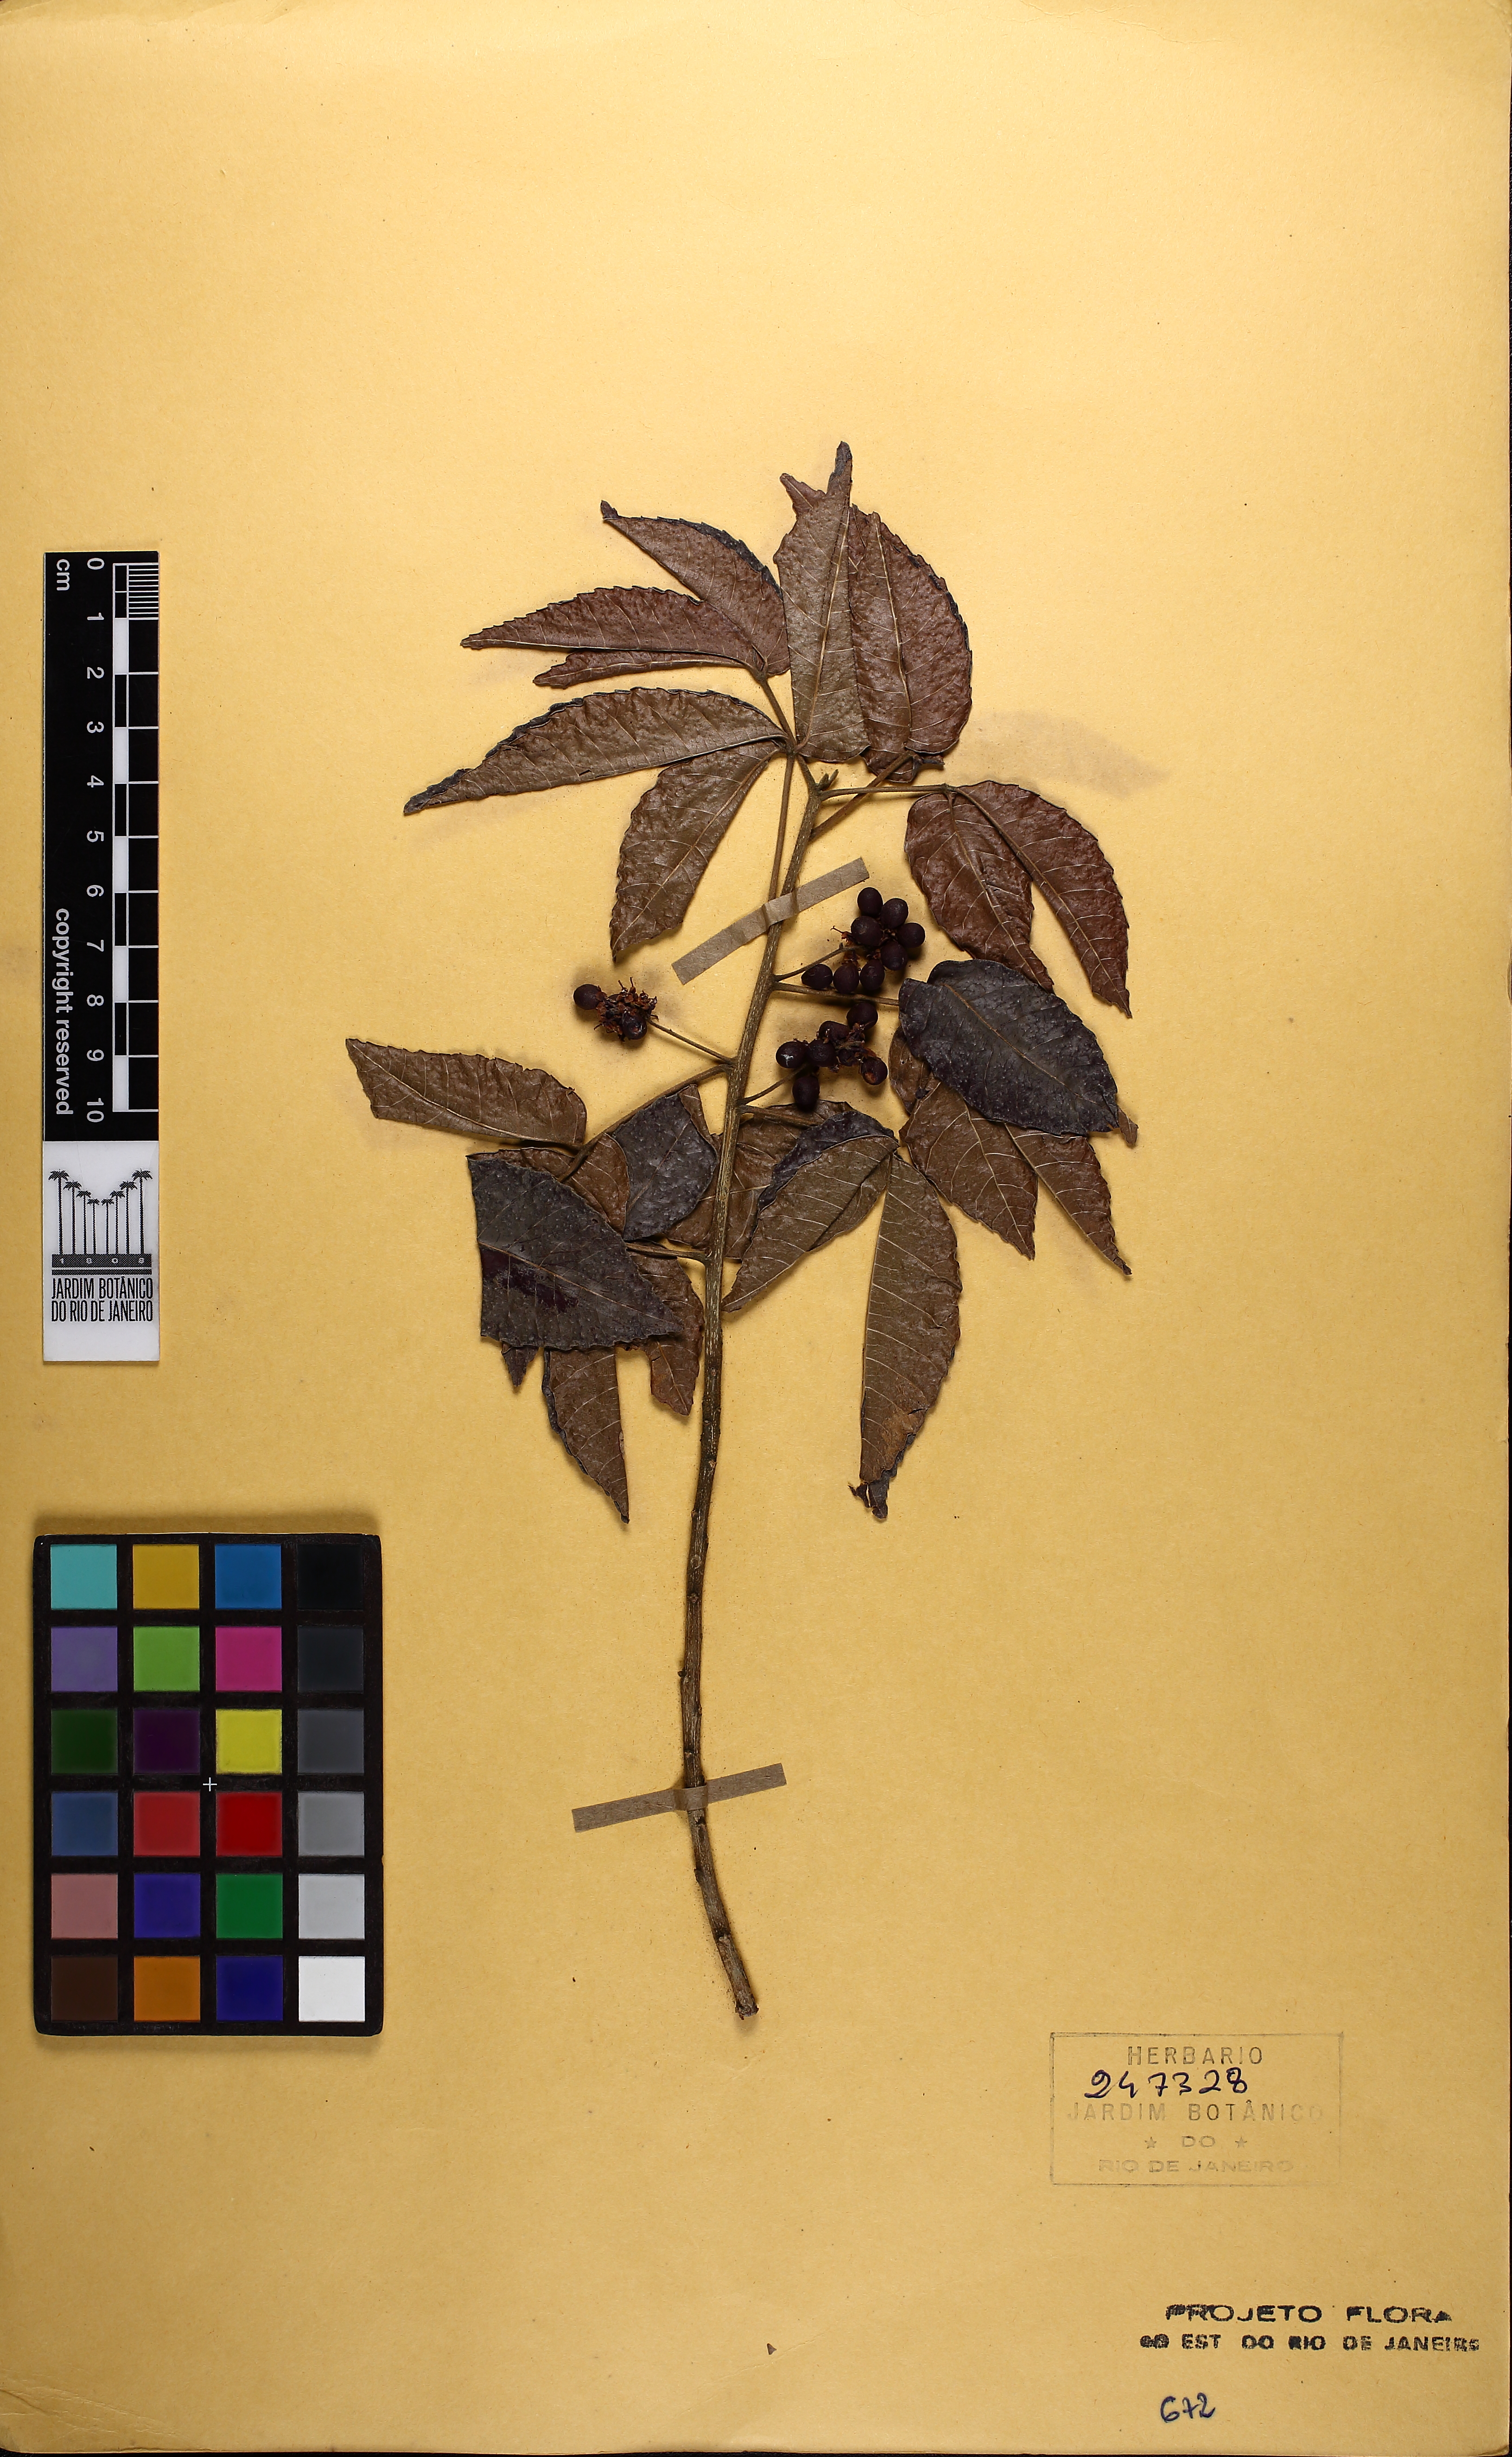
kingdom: Plantae
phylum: Tracheophyta
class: Magnoliopsida
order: Sapindales
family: Sapindaceae
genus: Allophylus
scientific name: Allophylus puberulus
